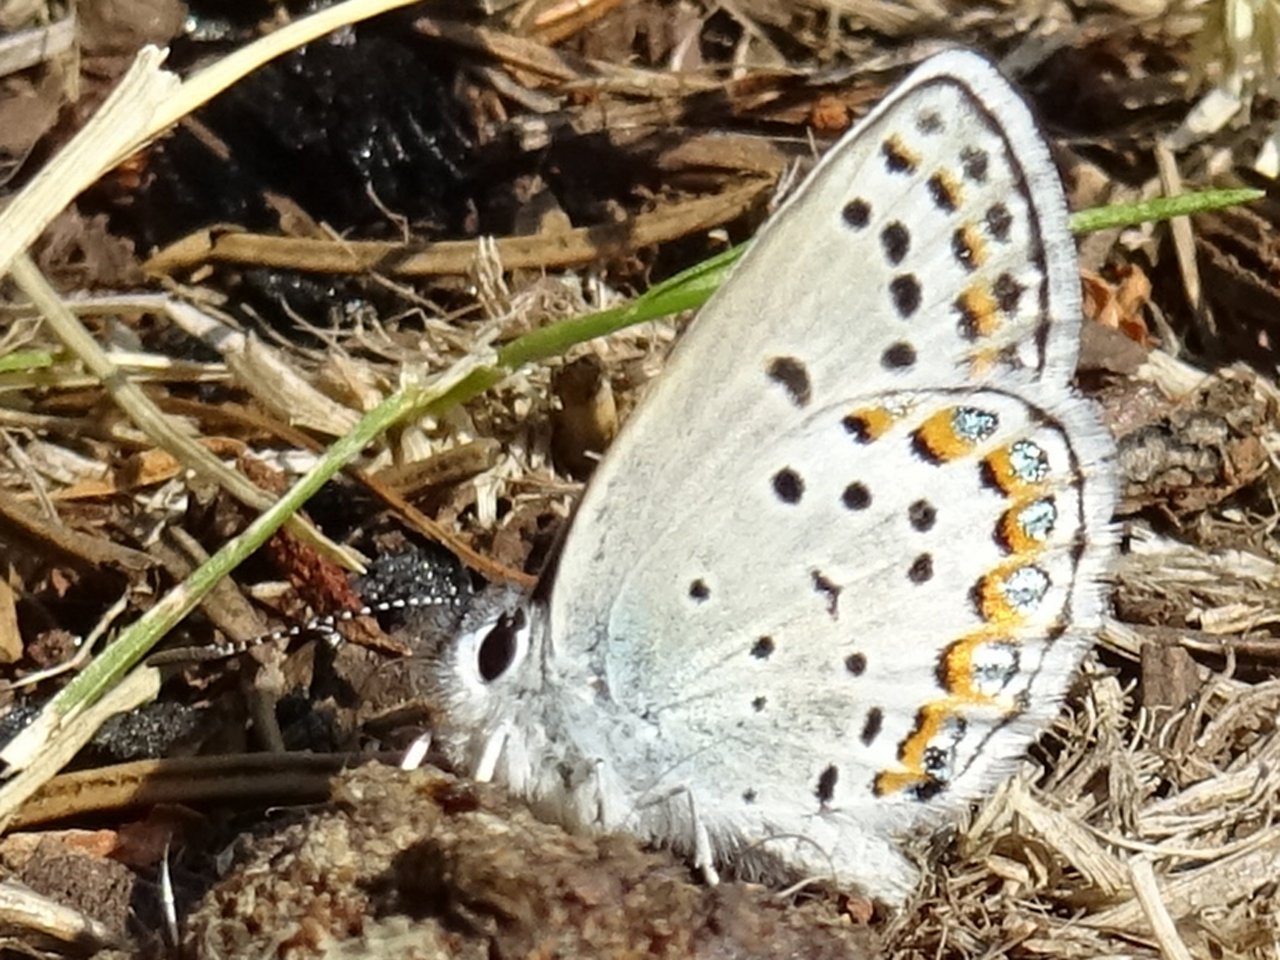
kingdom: Animalia
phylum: Arthropoda
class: Insecta
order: Lepidoptera
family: Lycaenidae
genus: Lycaeides
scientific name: Lycaeides melissa
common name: Melissa Blue
